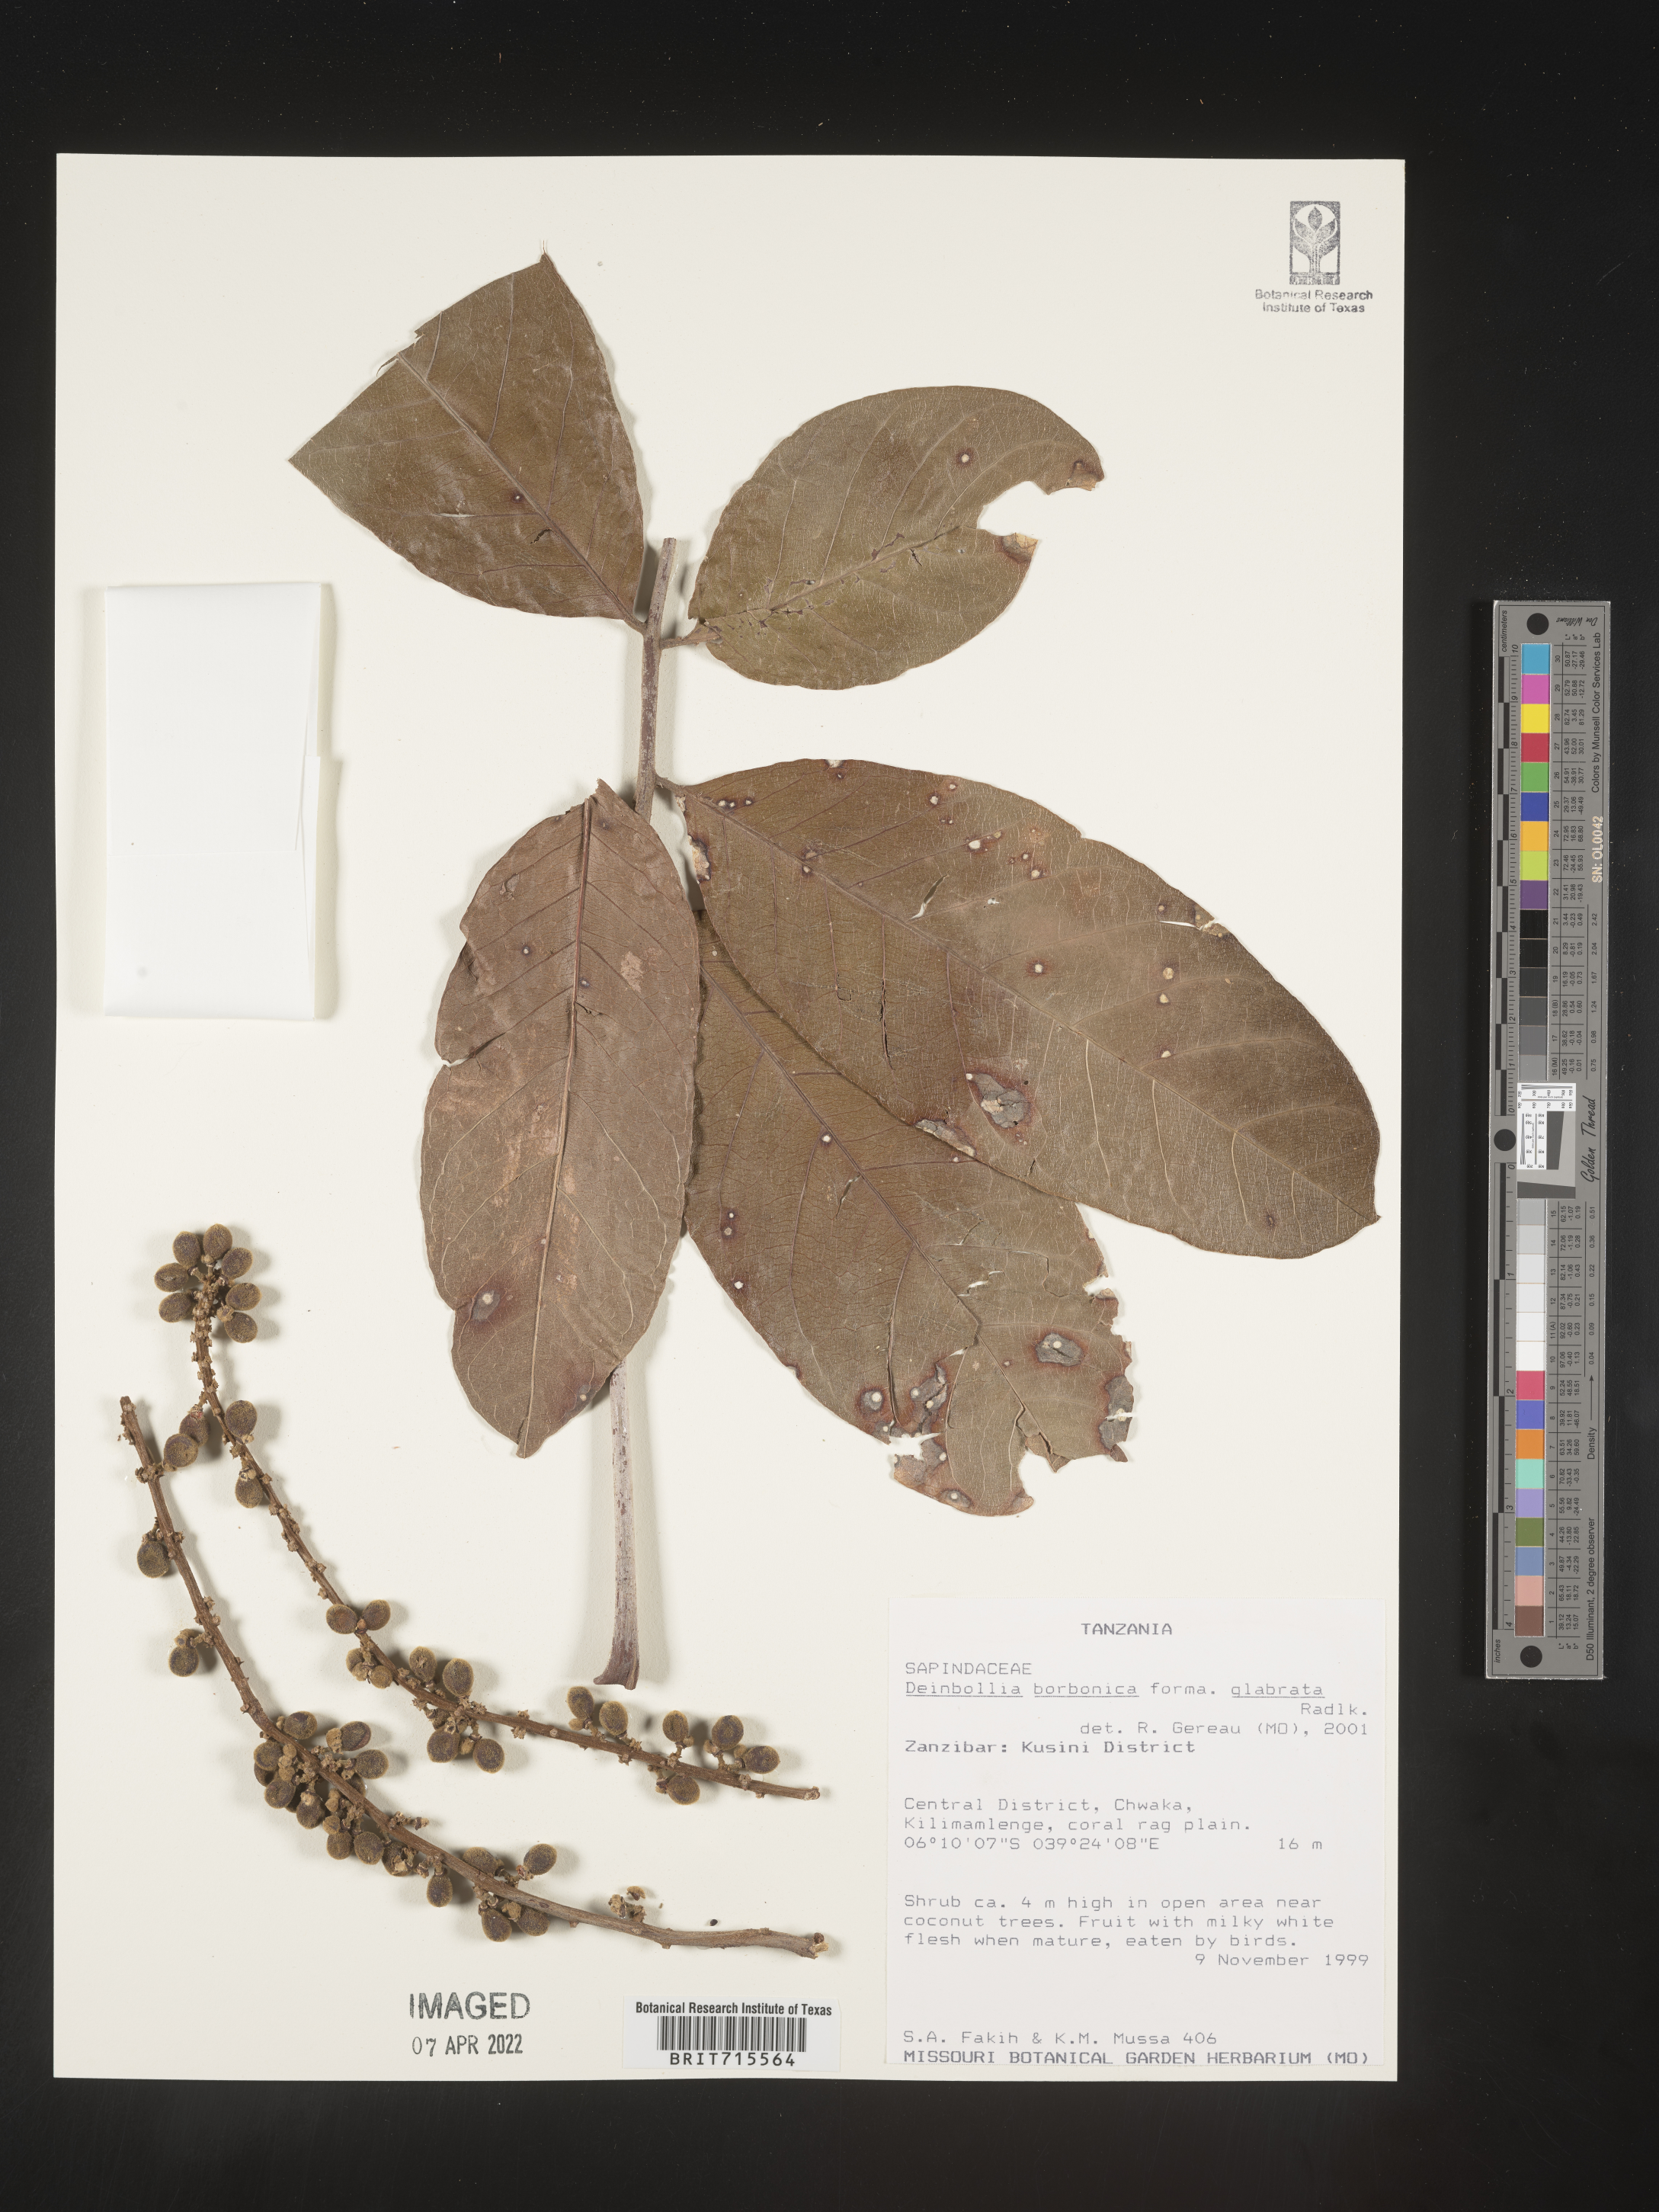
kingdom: Plantae
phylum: Tracheophyta
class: Magnoliopsida
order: Sapindales
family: Sapindaceae
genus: Deinbollia
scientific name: Deinbollia
